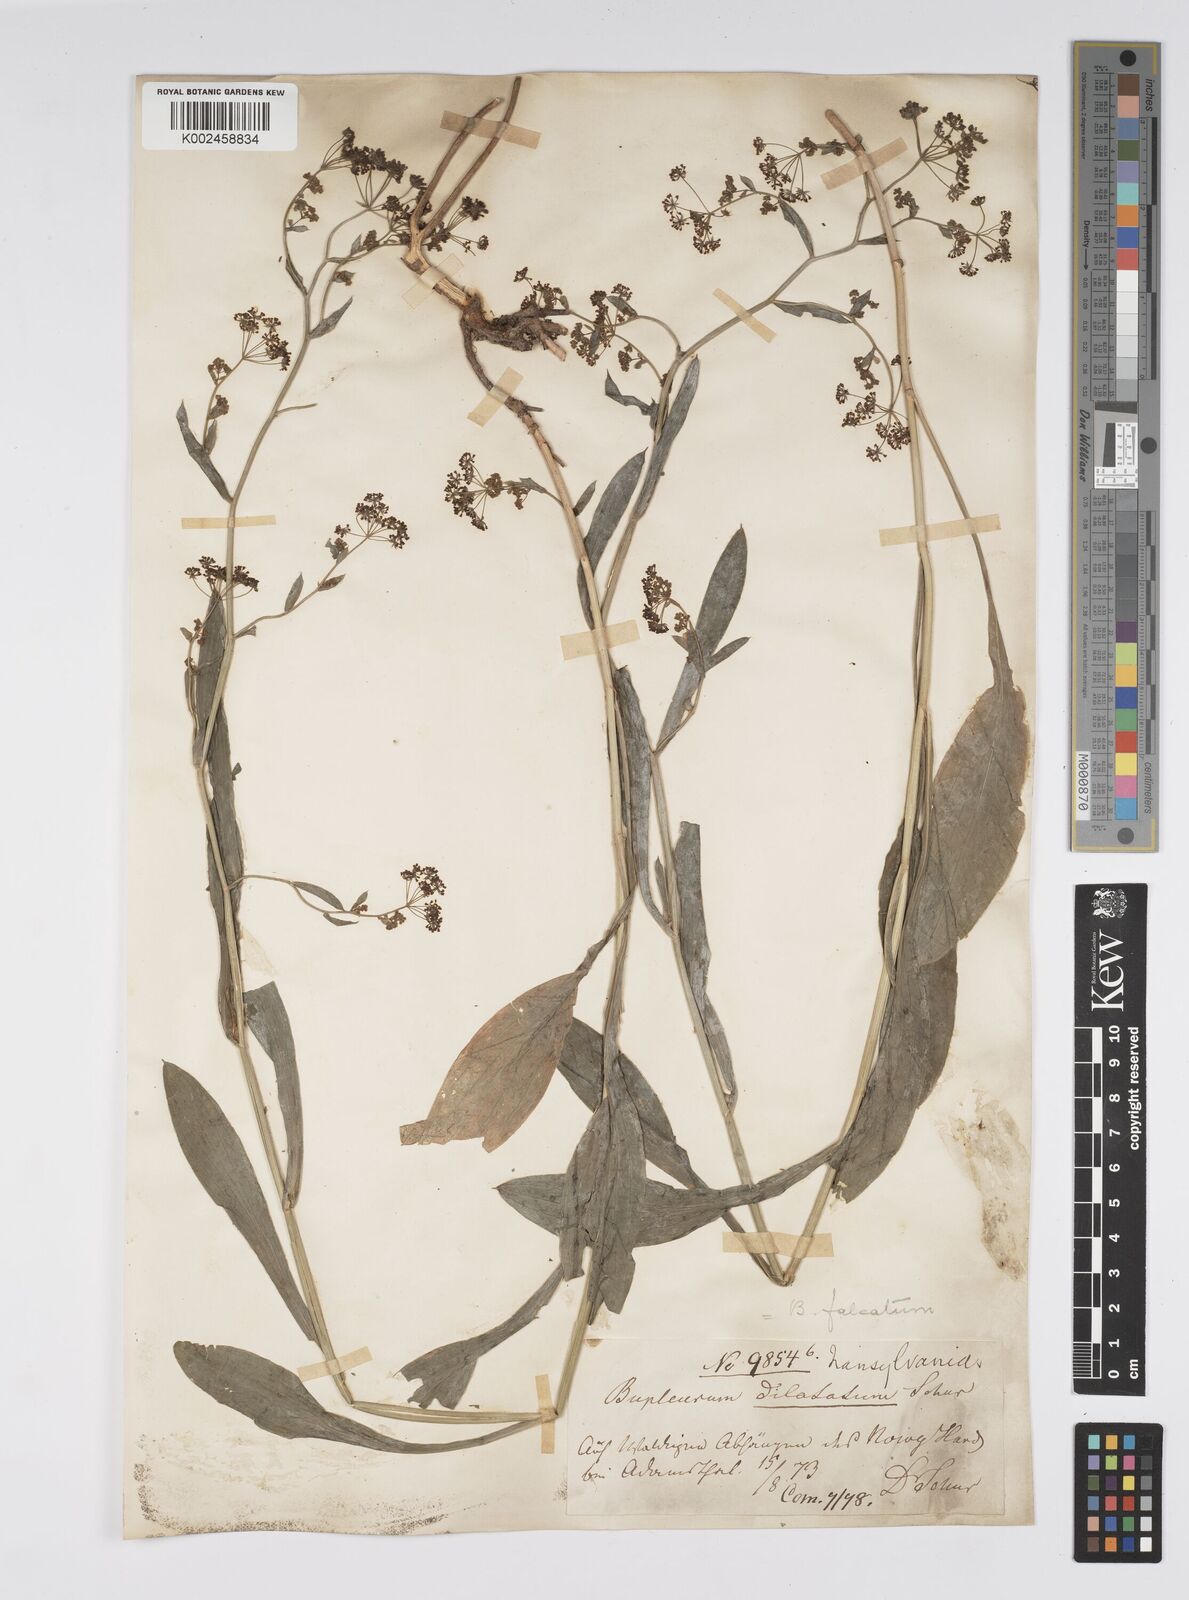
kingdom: Plantae
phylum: Tracheophyta
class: Magnoliopsida
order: Apiales
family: Apiaceae
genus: Bupleurum
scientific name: Bupleurum falcatum
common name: Sickle-leaved hare's-ear
